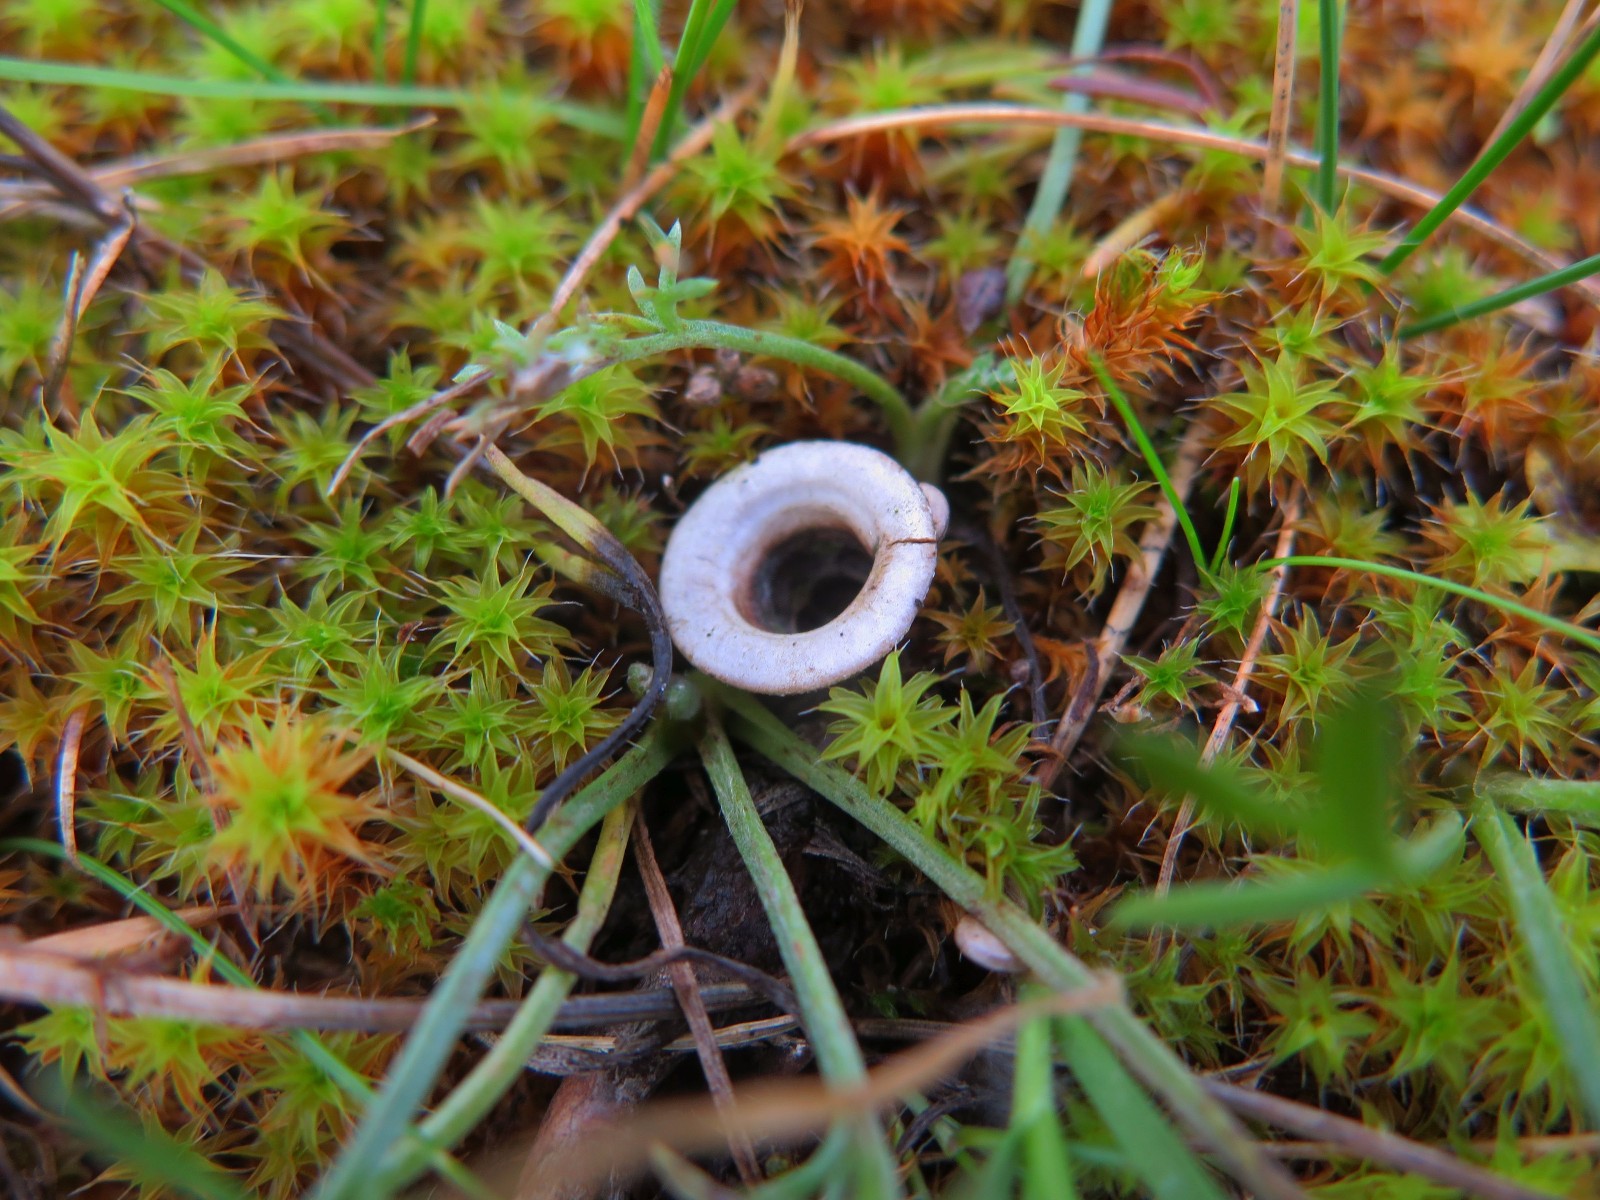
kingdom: Fungi
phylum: Basidiomycota
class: Agaricomycetes
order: Agaricales
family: Agaricaceae
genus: Cyathus
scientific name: Cyathus olla
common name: klokke-redesvamp
